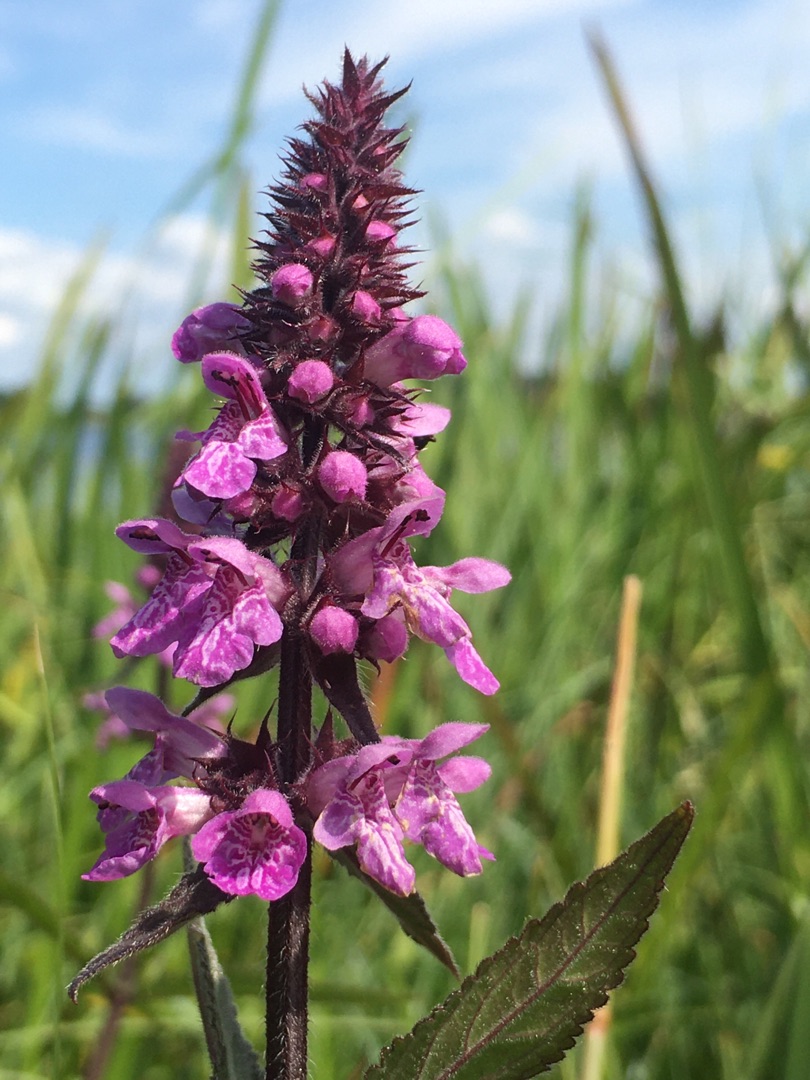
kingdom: Plantae
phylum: Tracheophyta
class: Magnoliopsida
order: Lamiales
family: Lamiaceae
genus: Stachys
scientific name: Stachys palustris
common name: Kær-galtetand
